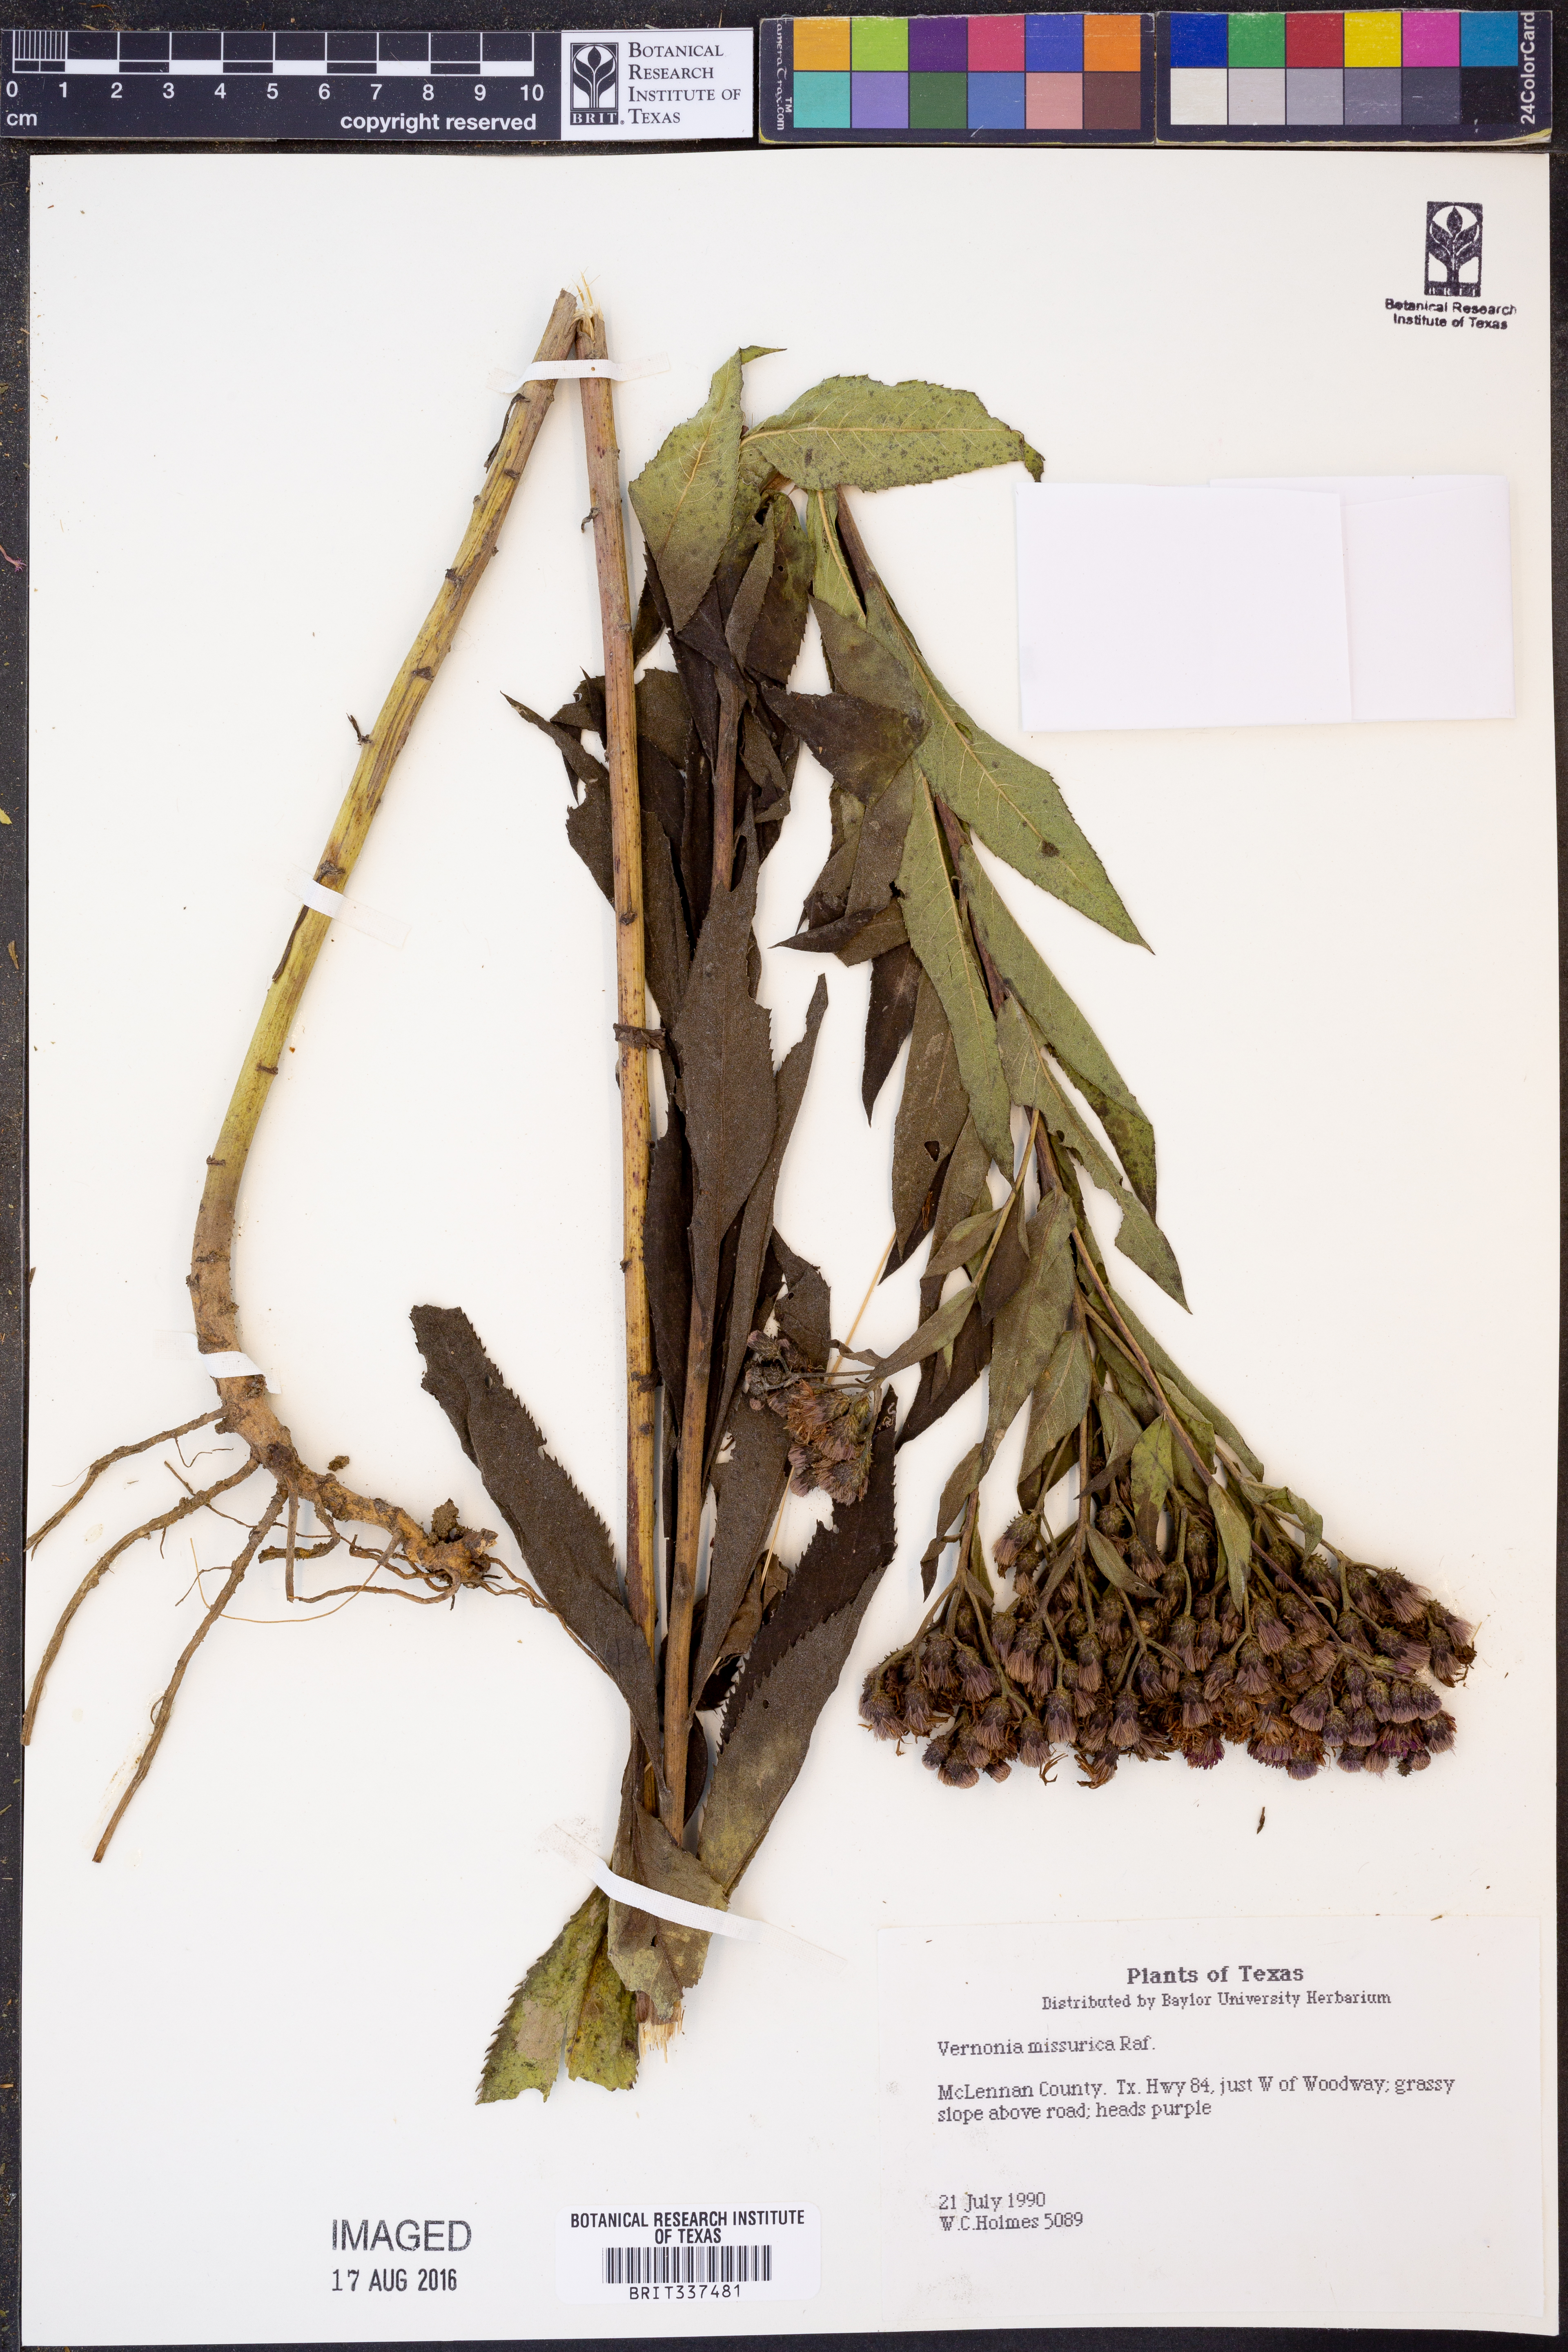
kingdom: Plantae
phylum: Tracheophyta
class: Magnoliopsida
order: Asterales
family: Asteraceae
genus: Vernonia
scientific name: Vernonia missurica
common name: Missouri ironweed
